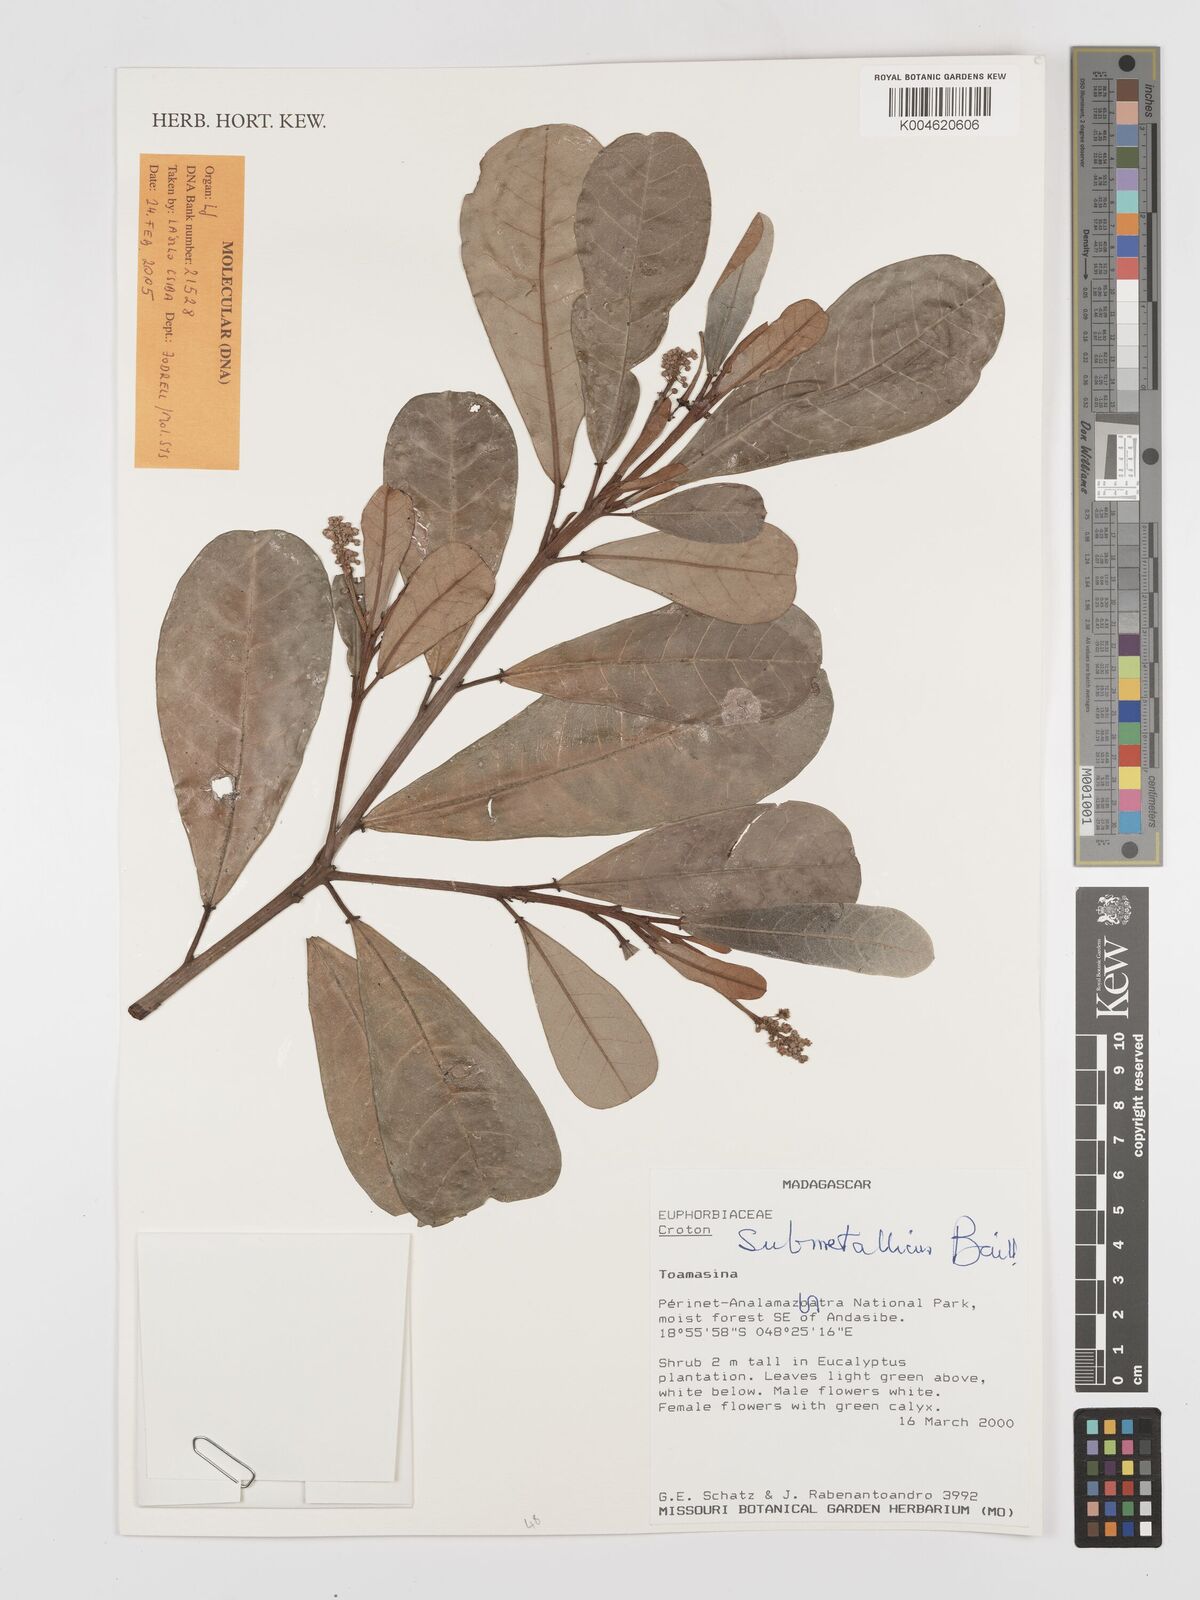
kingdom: Plantae
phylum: Tracheophyta
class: Magnoliopsida
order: Malpighiales
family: Euphorbiaceae
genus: Croton
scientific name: Croton submetallicus
